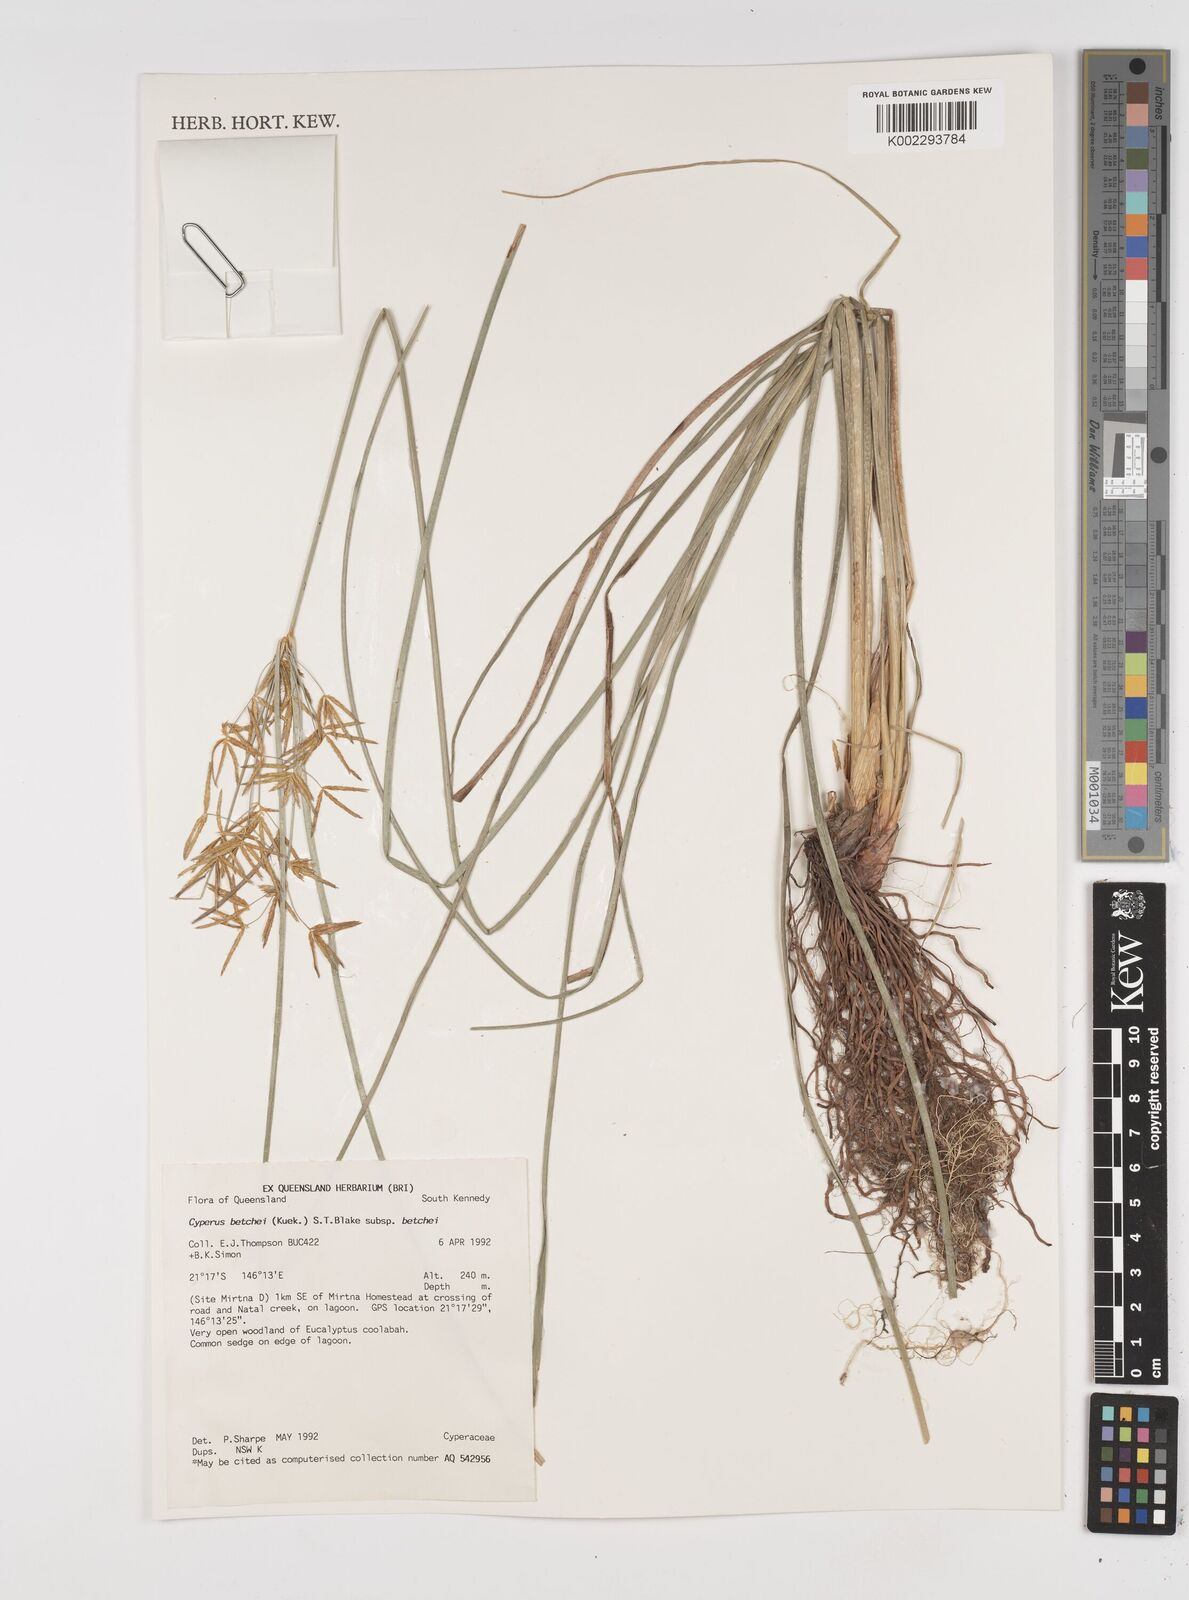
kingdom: Plantae
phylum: Tracheophyta
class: Liliopsida
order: Poales
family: Cyperaceae
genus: Cyperus
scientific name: Cyperus betchei
